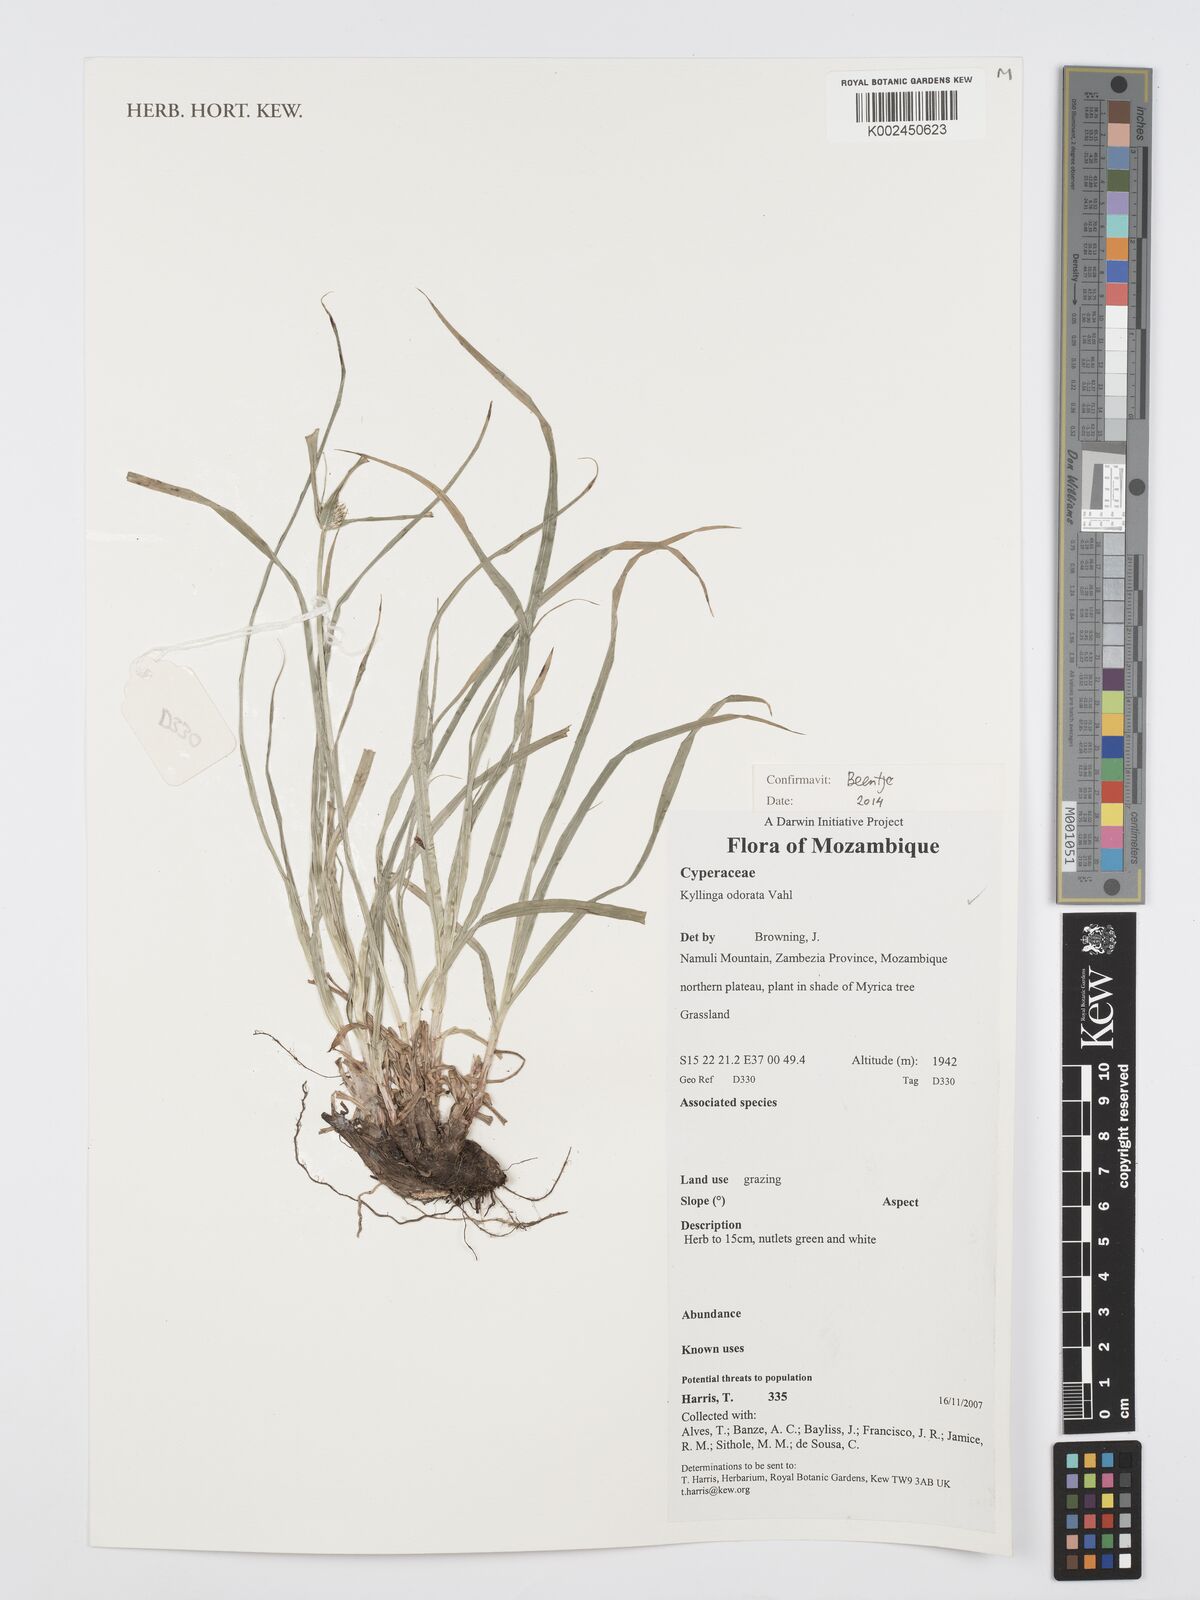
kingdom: Plantae
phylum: Tracheophyta
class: Liliopsida
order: Poales
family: Cyperaceae
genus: Cyperus
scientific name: Cyperus
